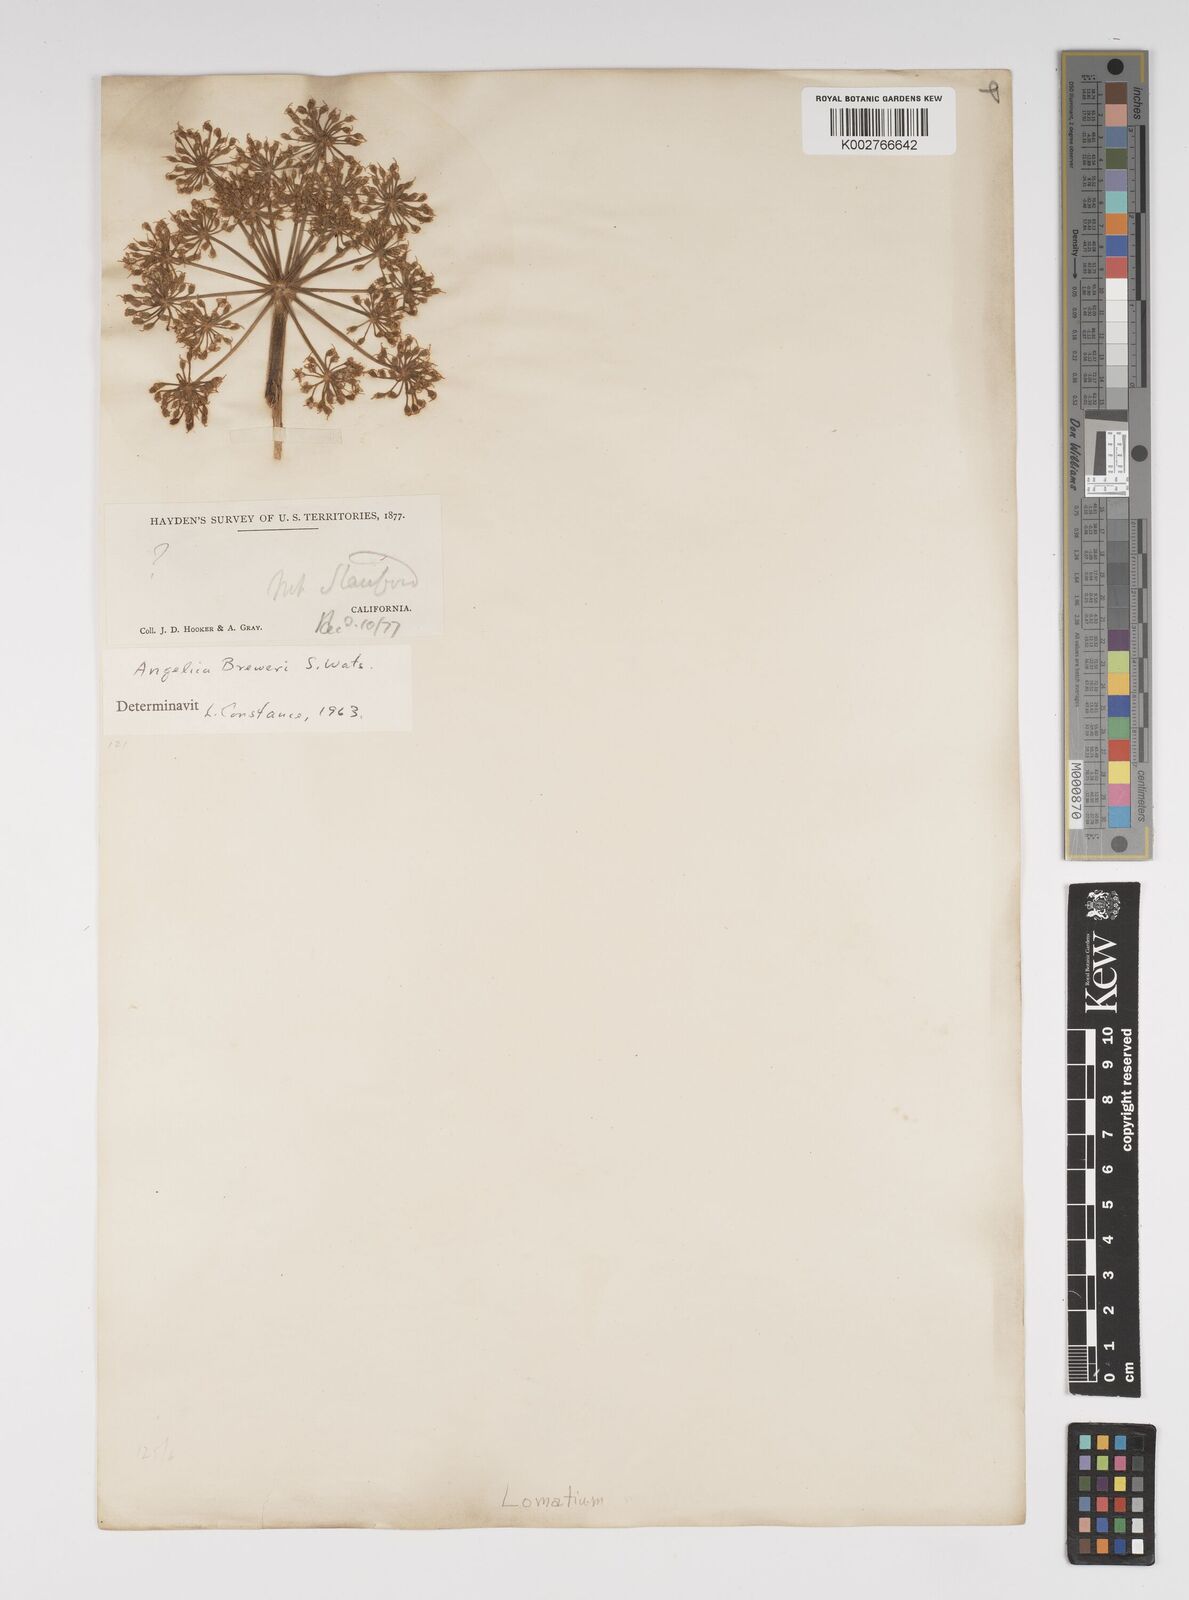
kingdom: Plantae
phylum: Tracheophyta
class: Magnoliopsida
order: Apiales
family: Apiaceae
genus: Angelica
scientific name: Angelica breweri
